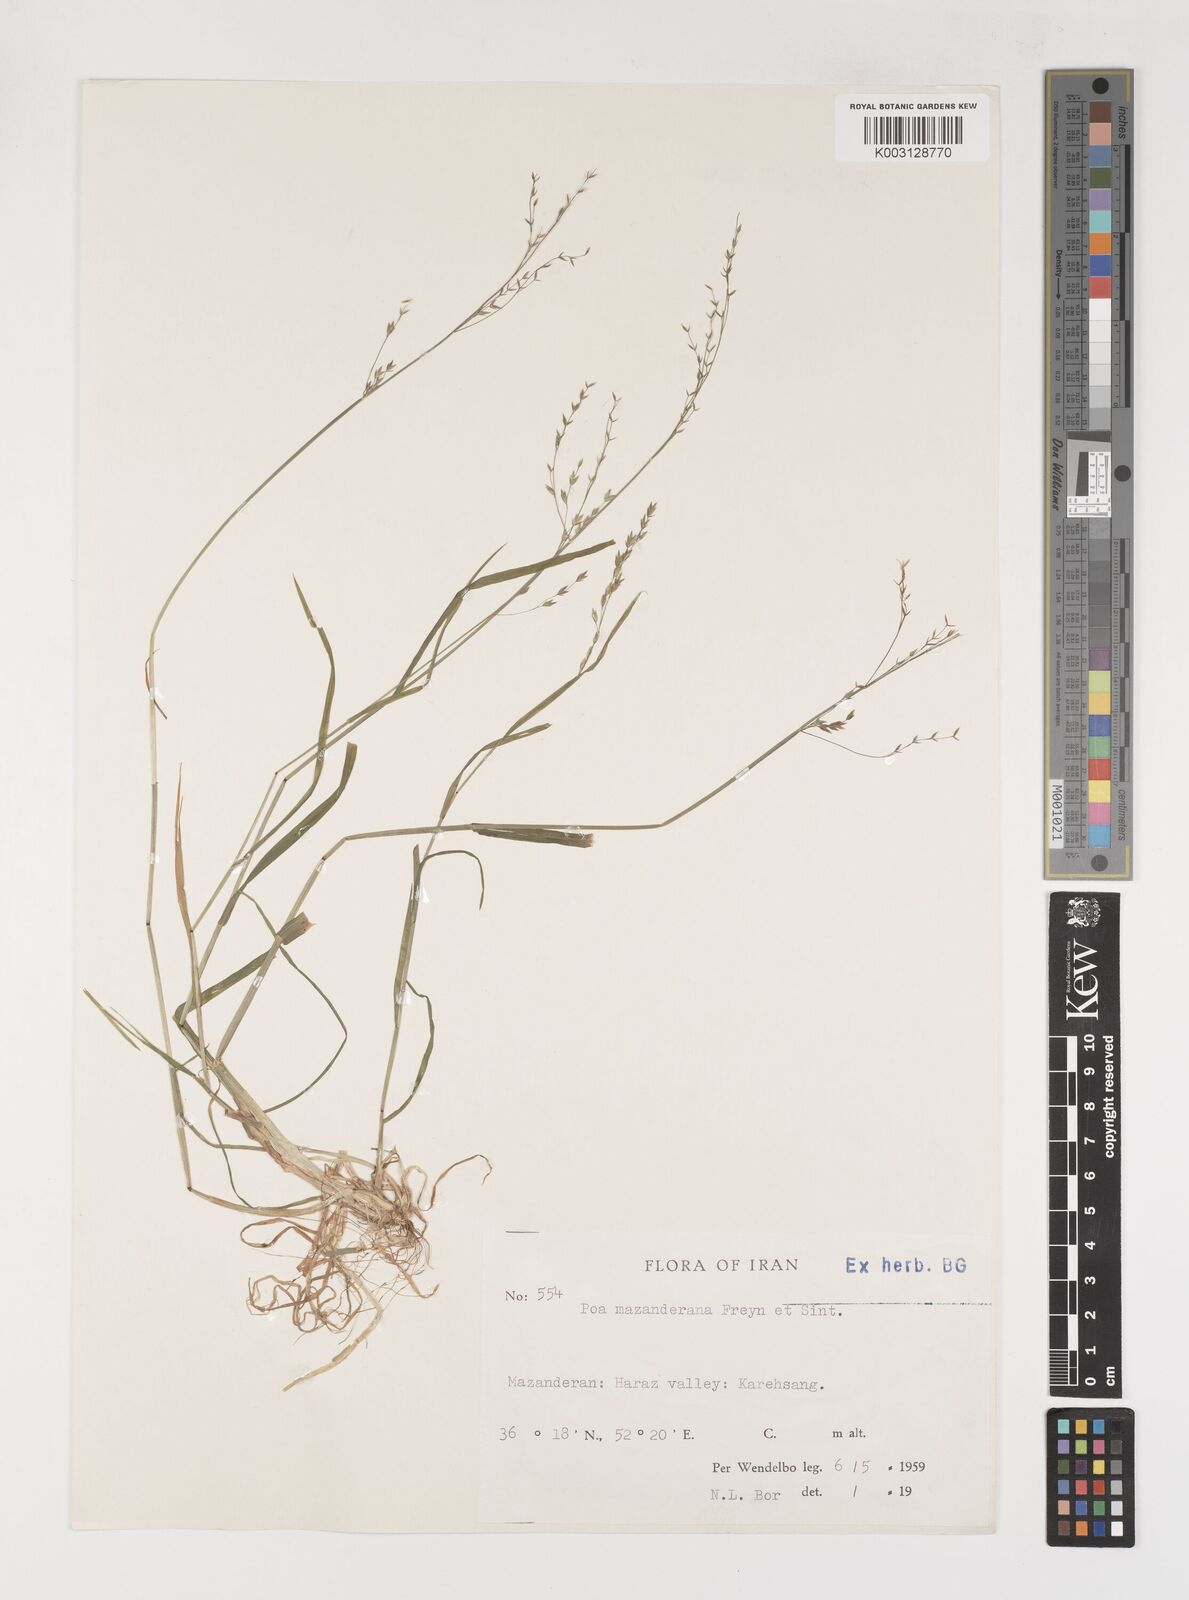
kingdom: Plantae
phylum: Tracheophyta
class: Liliopsida
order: Poales
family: Poaceae
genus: Poa
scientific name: Poa masenderana
